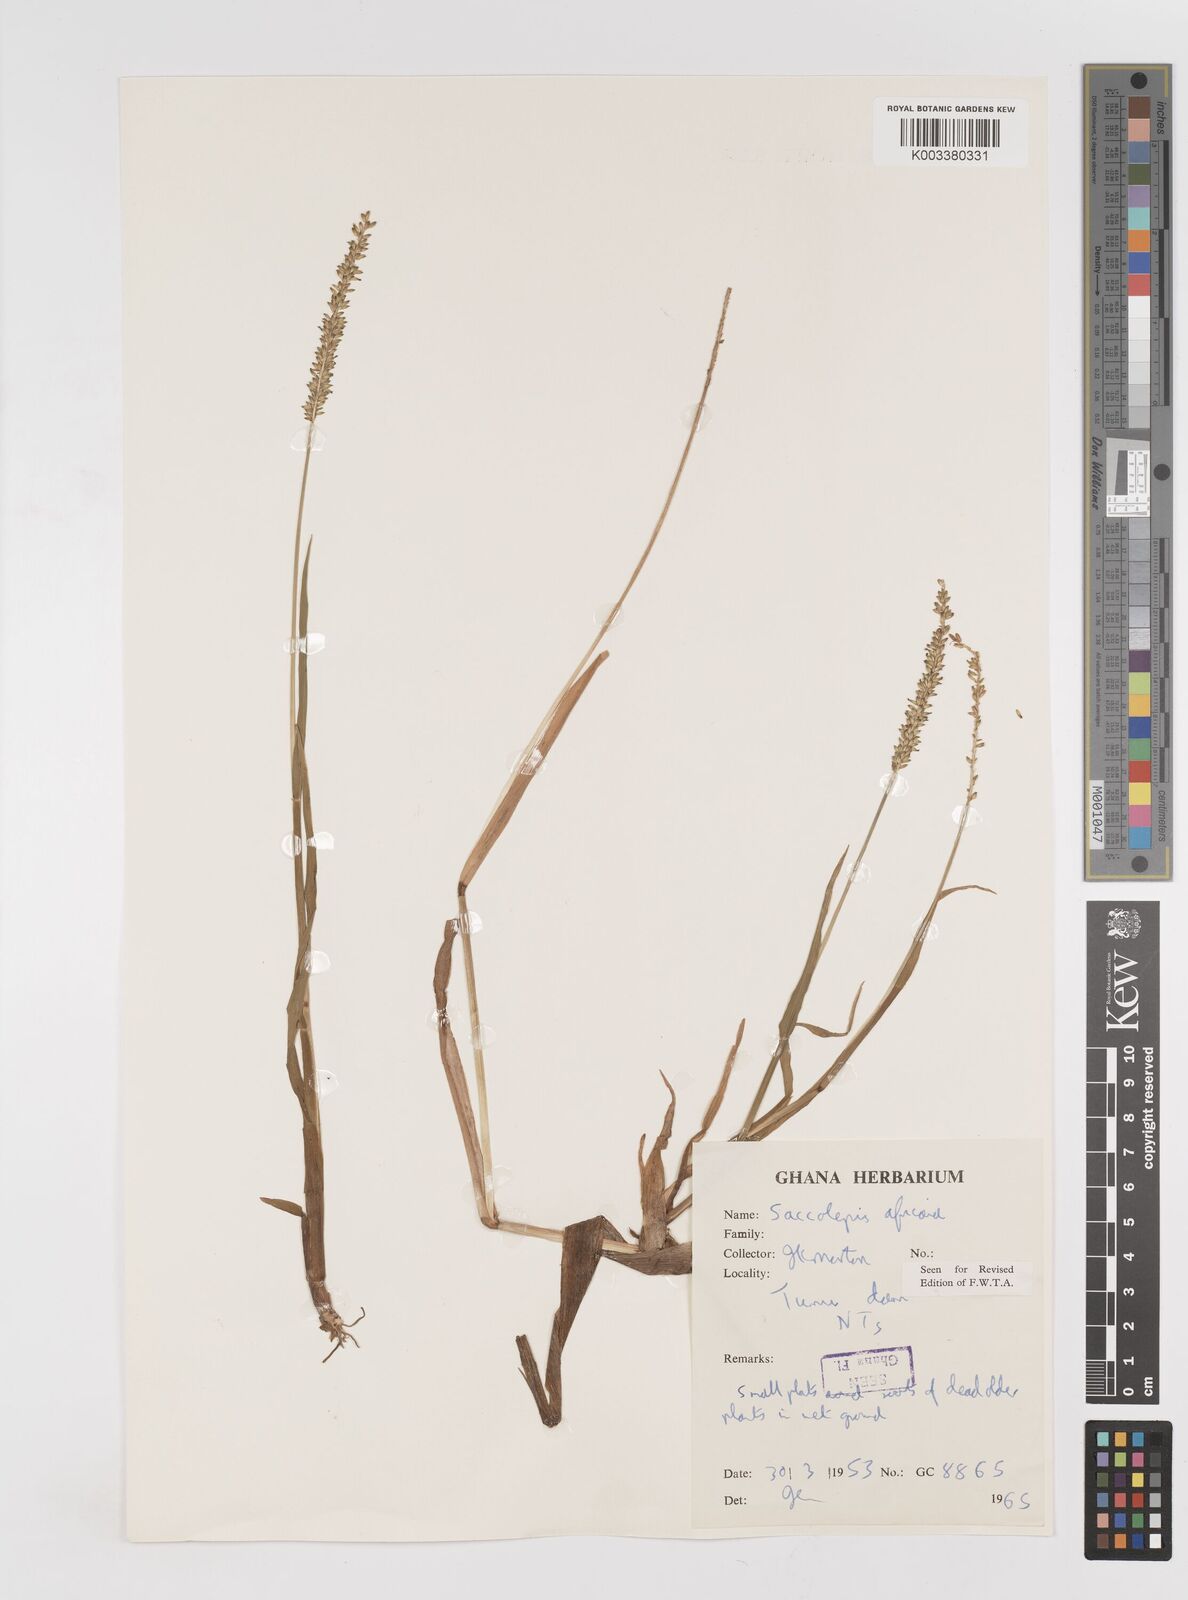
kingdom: Plantae
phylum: Tracheophyta
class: Liliopsida
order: Poales
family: Poaceae
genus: Sacciolepis
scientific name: Sacciolepis africana
